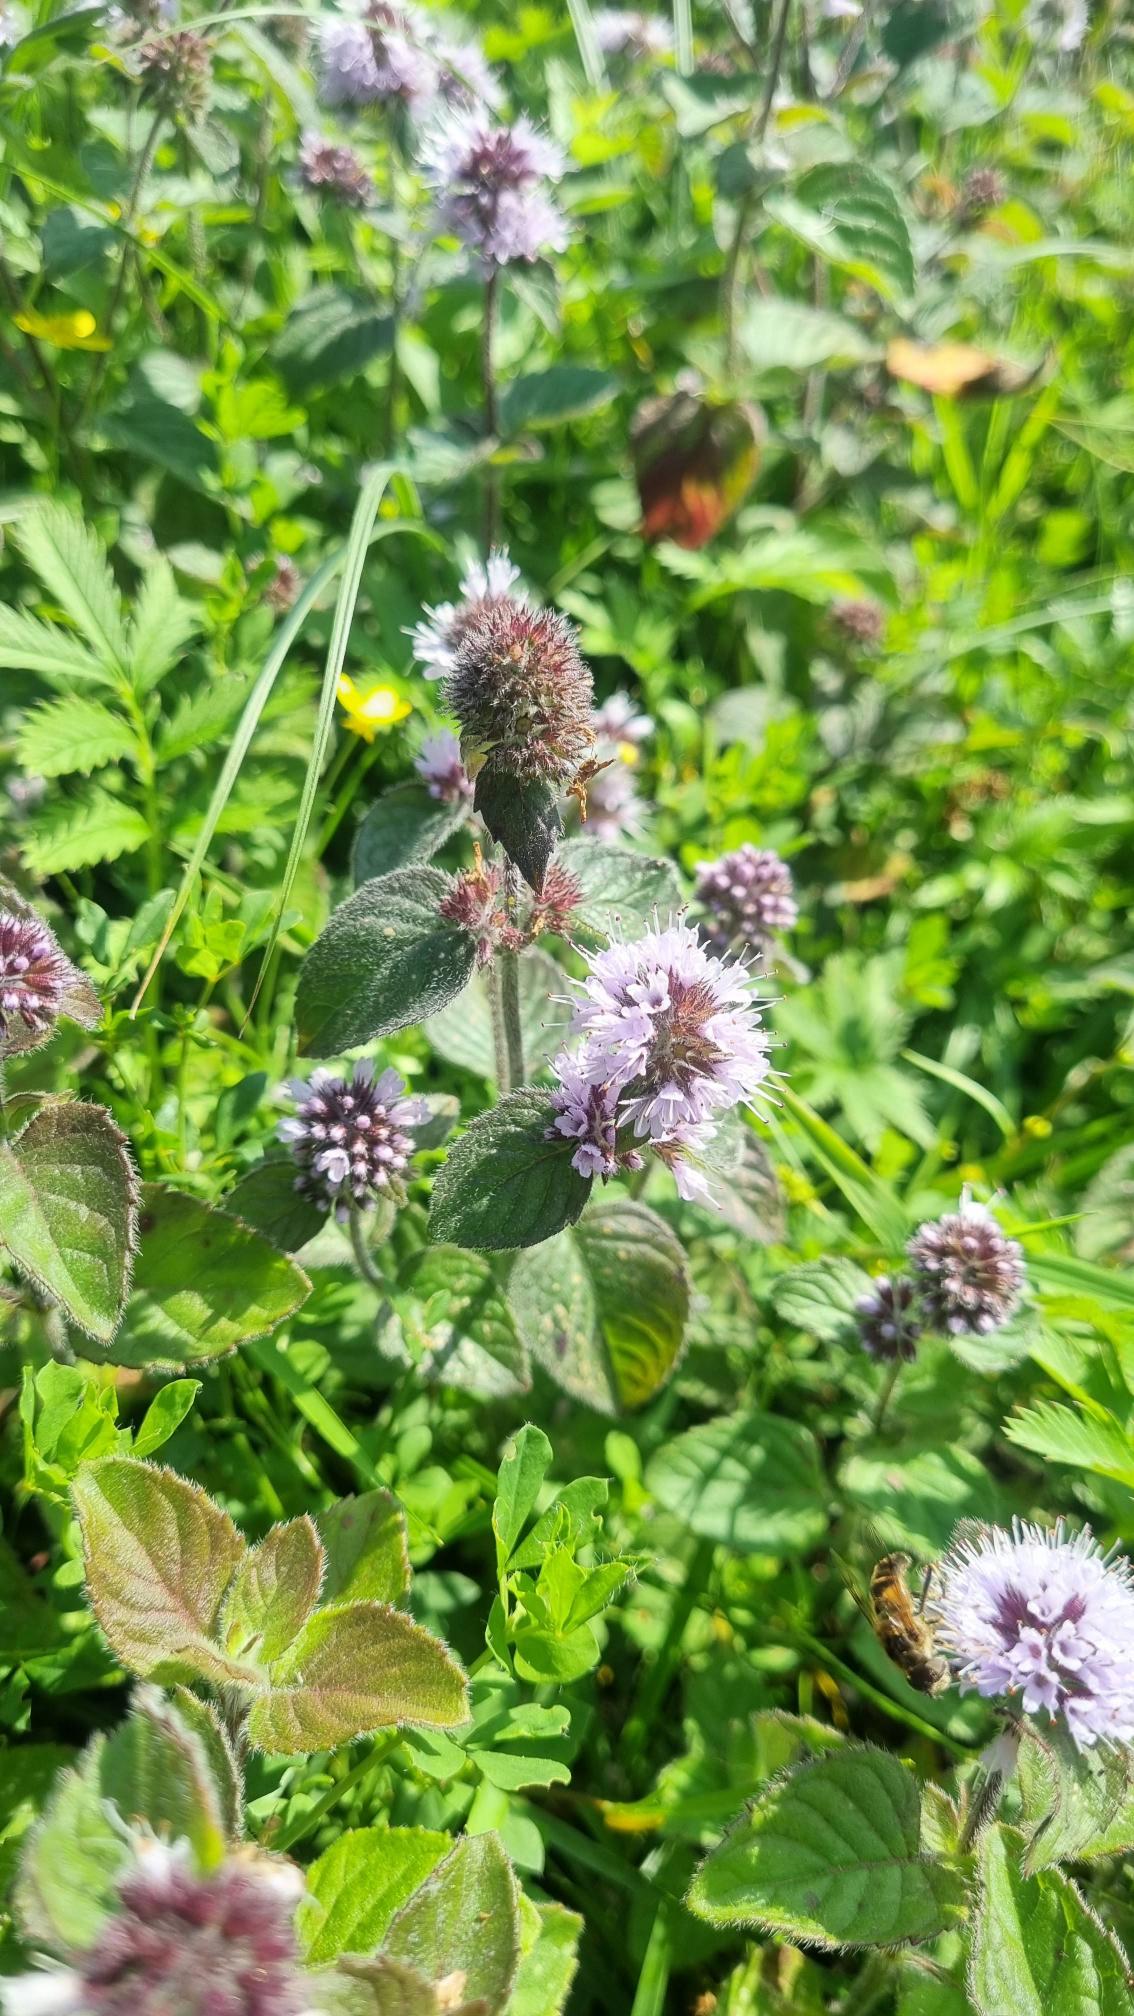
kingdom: Plantae
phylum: Tracheophyta
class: Magnoliopsida
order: Lamiales
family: Lamiaceae
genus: Mentha
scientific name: Mentha aquatica
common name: Vand-mynte
